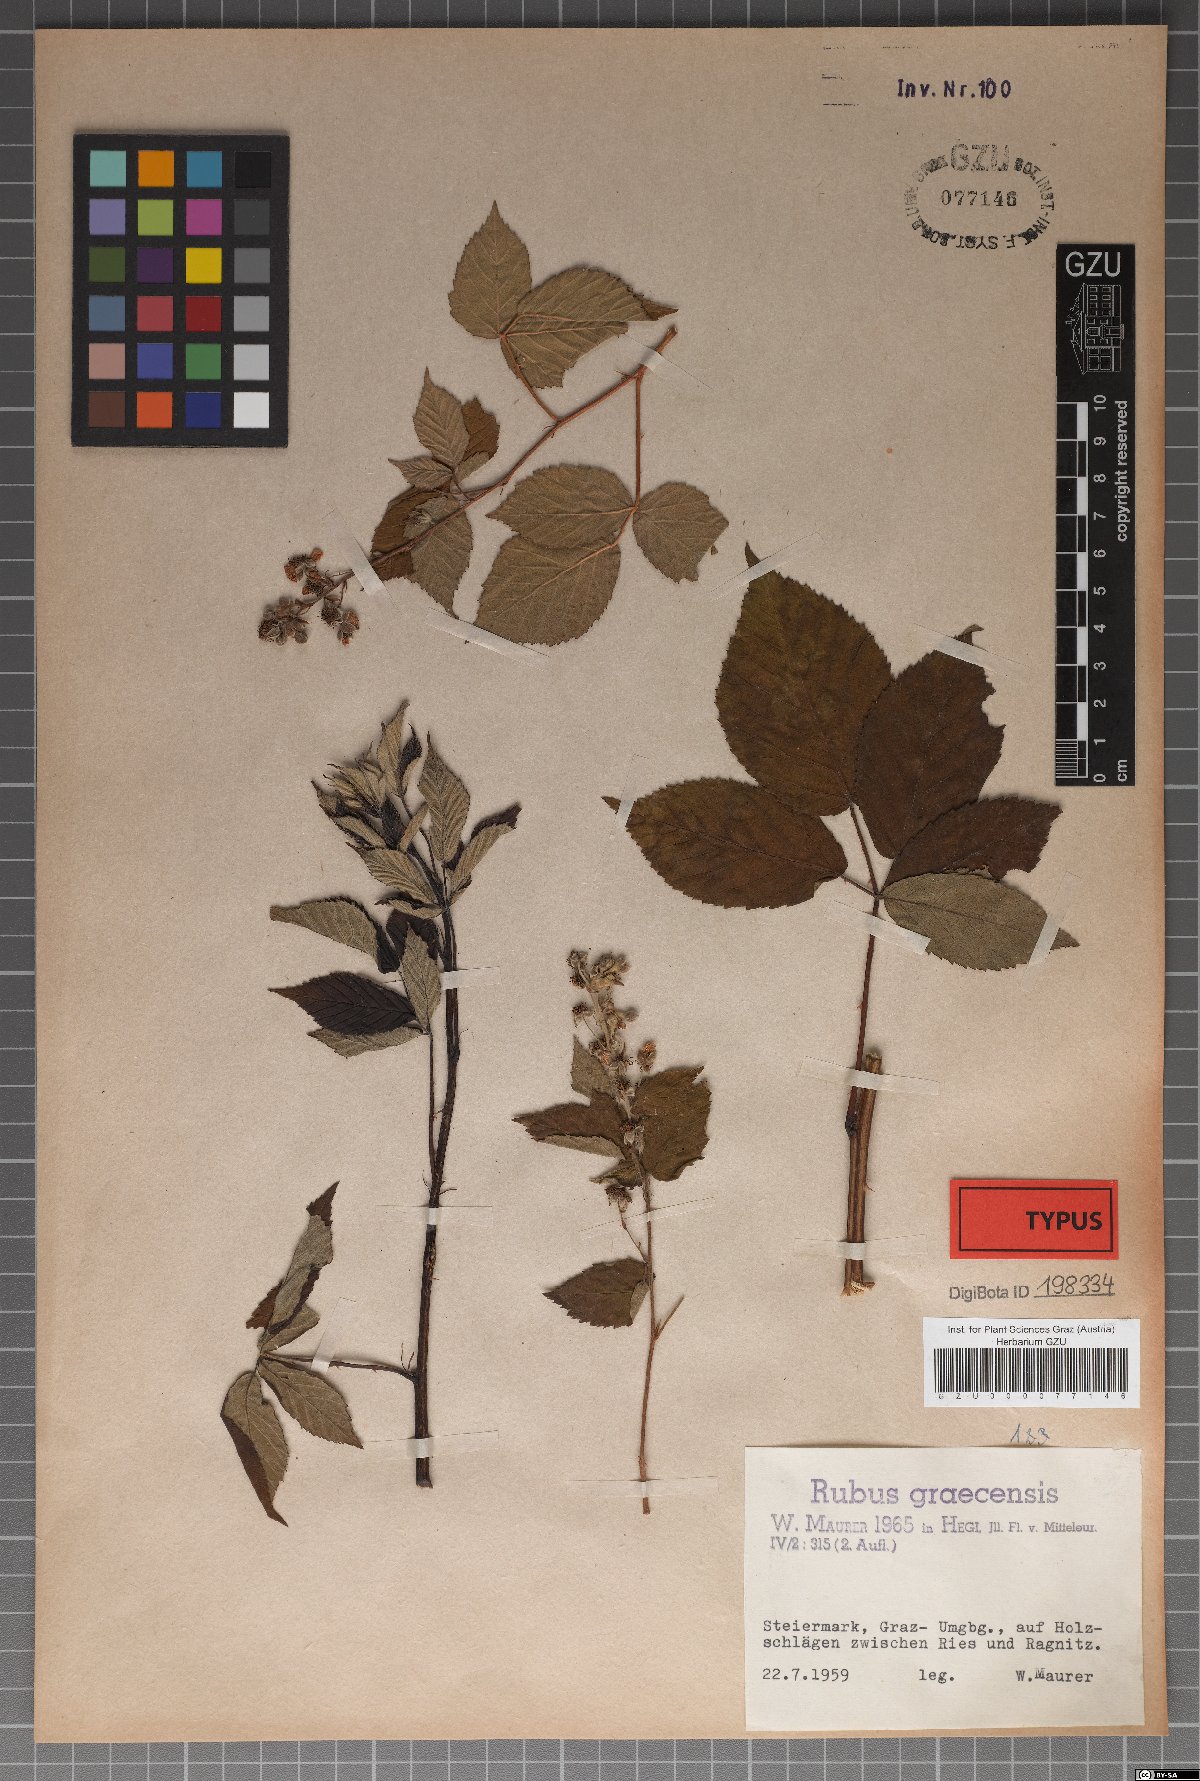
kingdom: Plantae
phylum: Tracheophyta
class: Magnoliopsida
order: Rosales
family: Rosaceae
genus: Rubus
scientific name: Rubus graecensis
